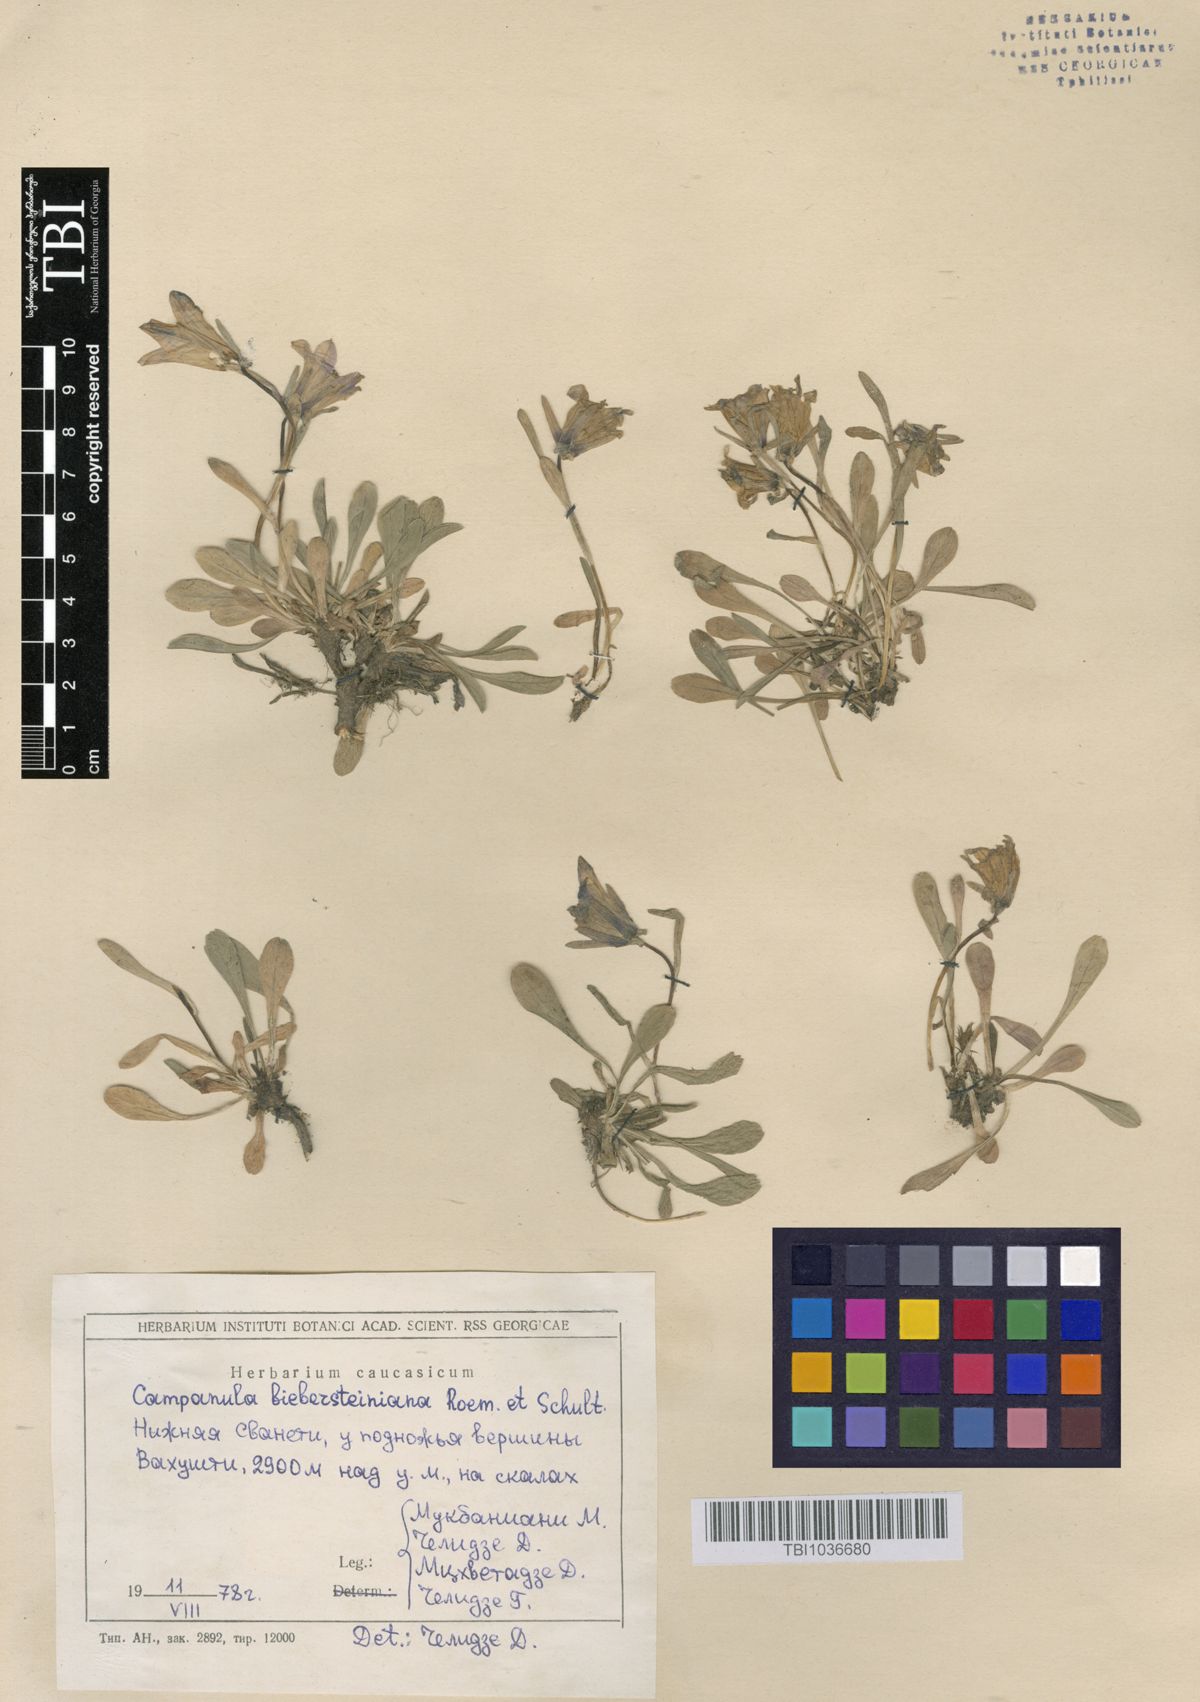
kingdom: Plantae
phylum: Tracheophyta
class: Magnoliopsida
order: Asterales
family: Campanulaceae
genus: Campanula
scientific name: Campanula tridentata
